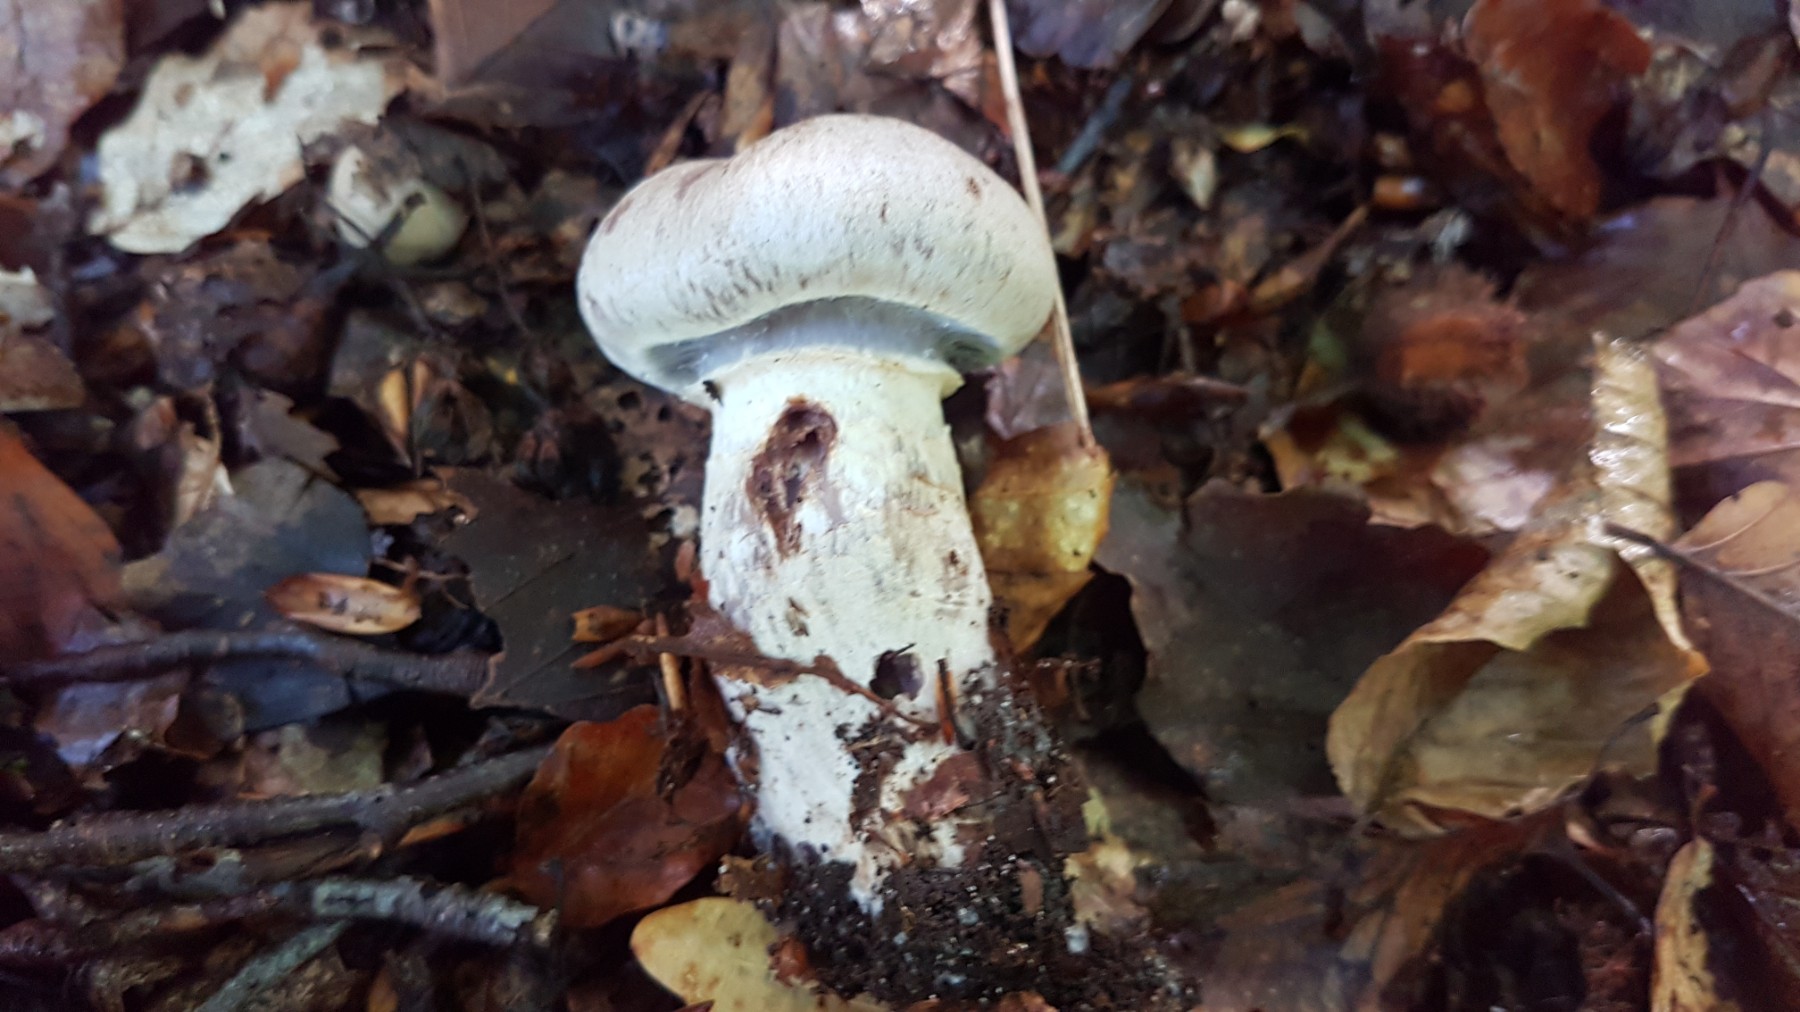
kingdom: Fungi
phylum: Basidiomycota
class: Agaricomycetes
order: Agaricales
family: Cortinariaceae
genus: Cortinarius
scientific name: Cortinarius torvus
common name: champignonagtig slørhat
